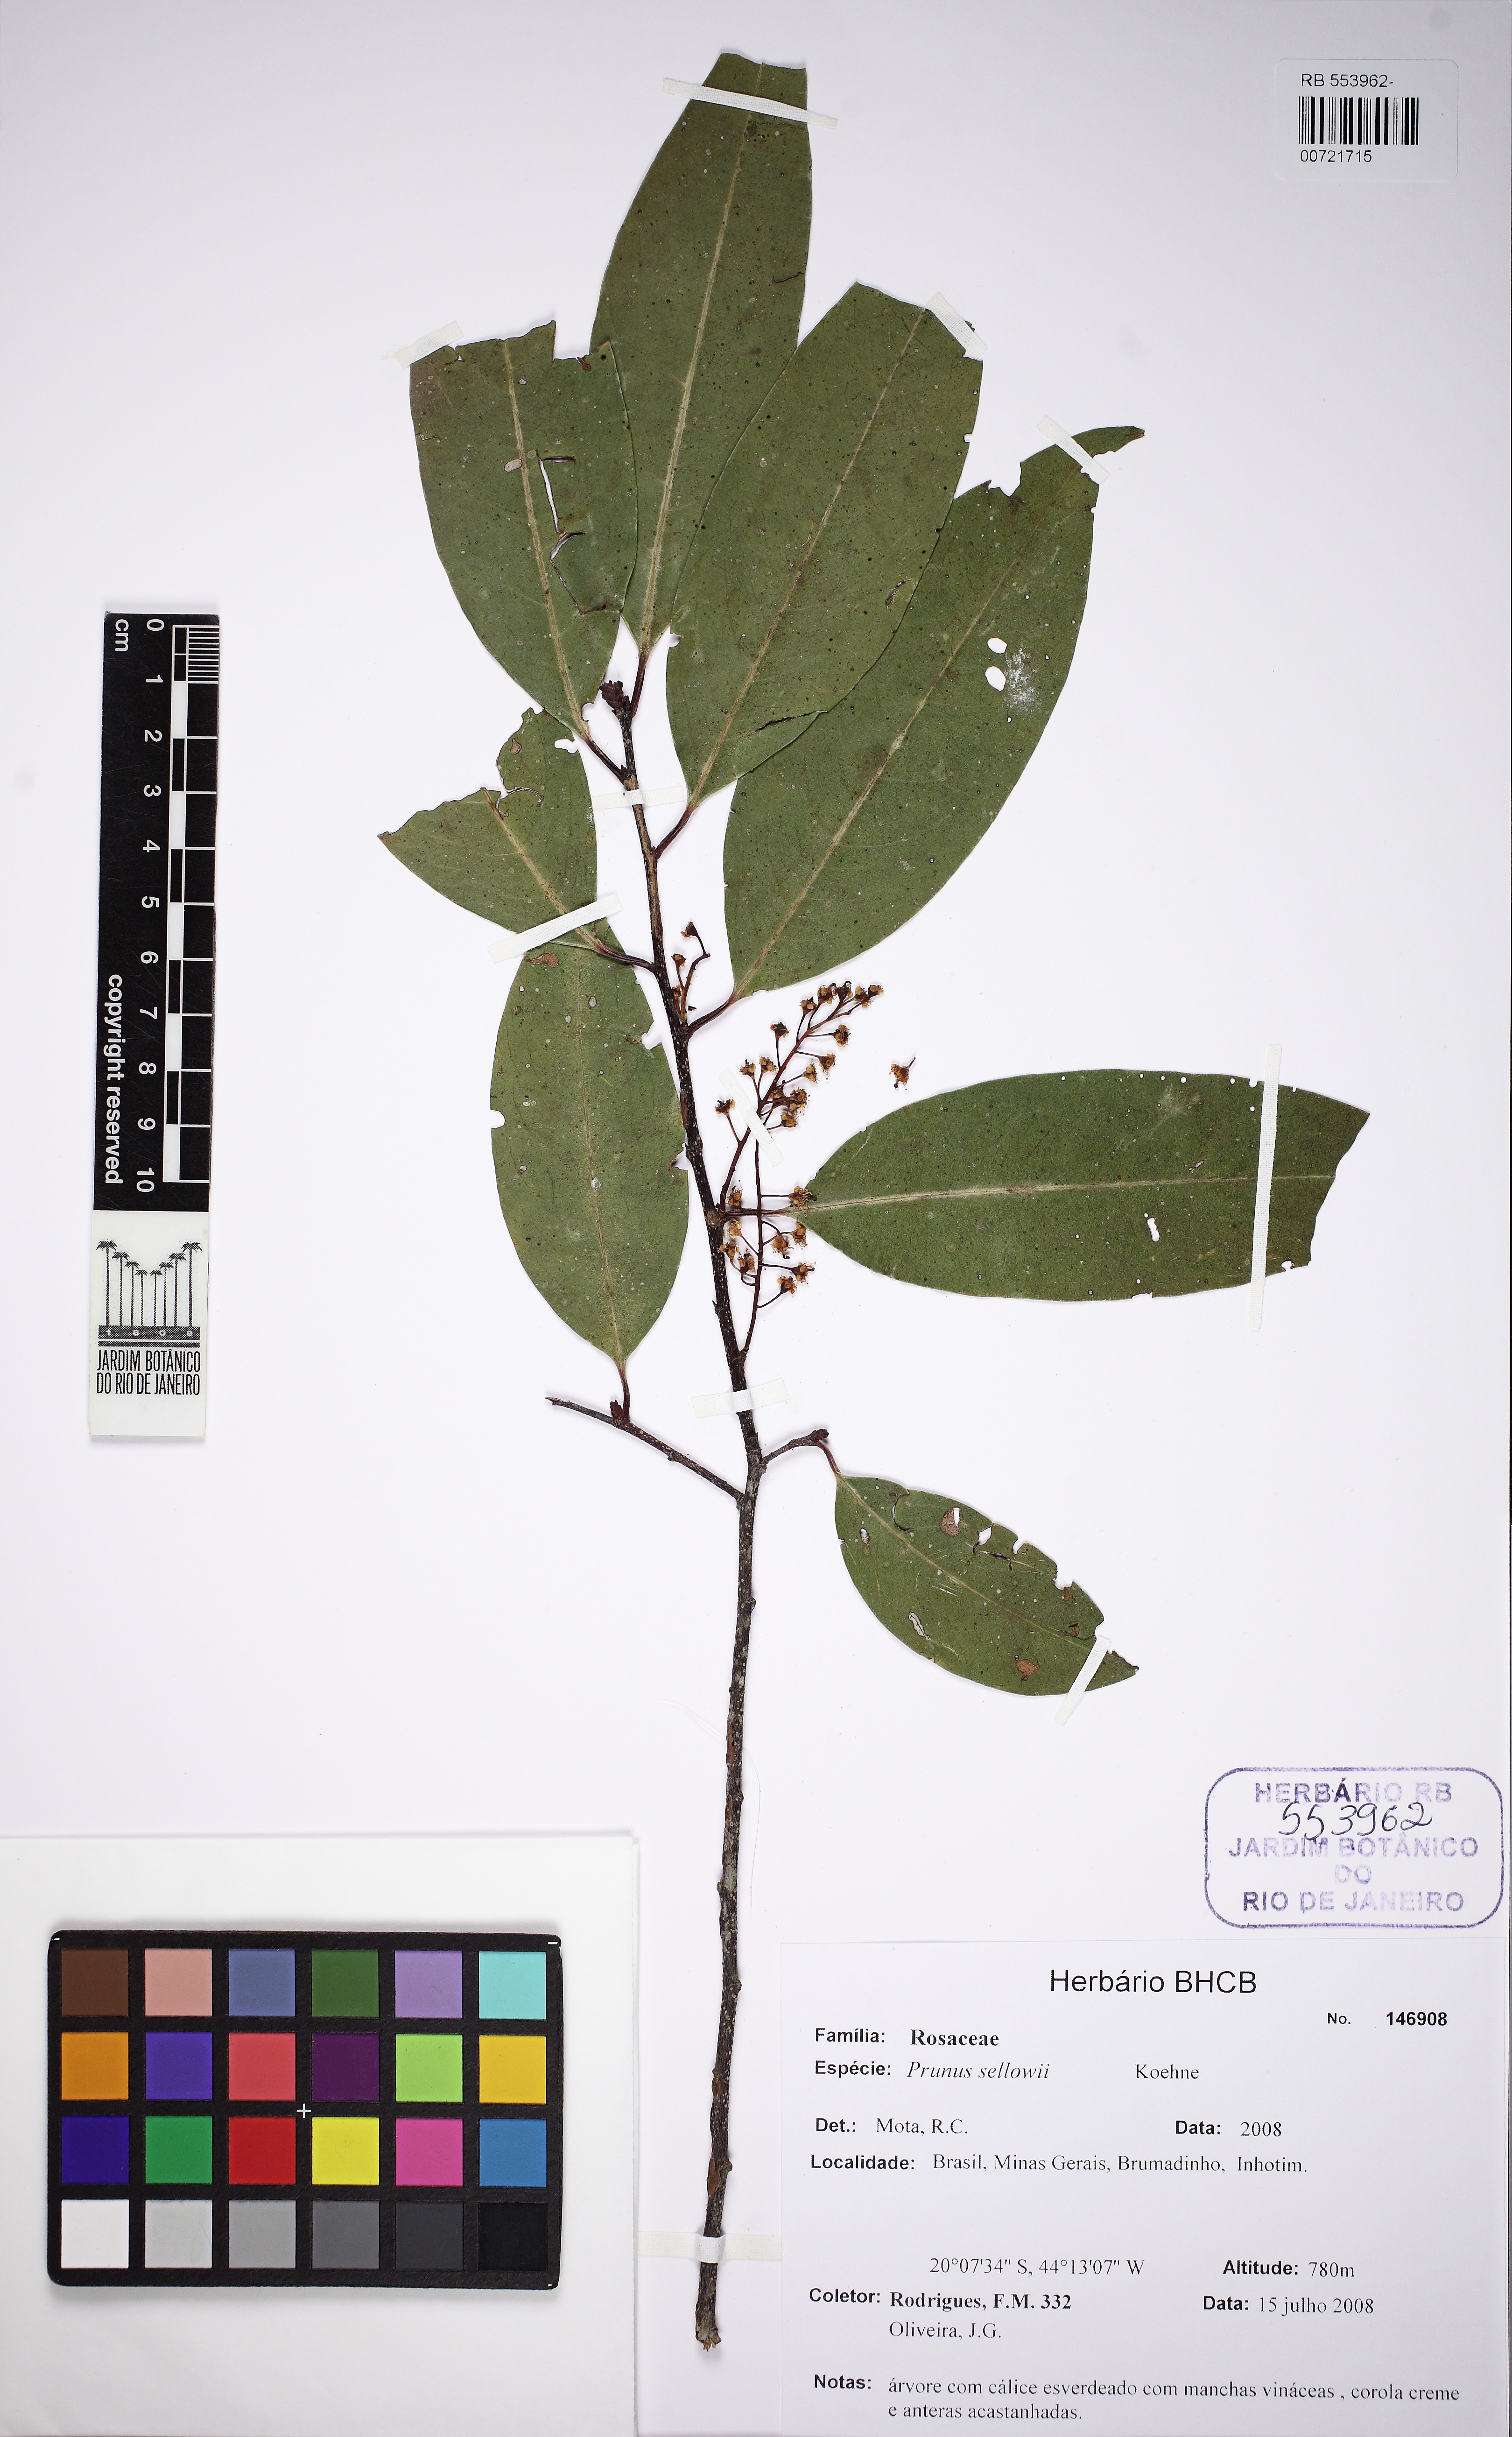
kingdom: Plantae
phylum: Tracheophyta
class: Magnoliopsida
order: Rosales
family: Rosaceae
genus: Prunus
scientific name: Prunus reflexa
